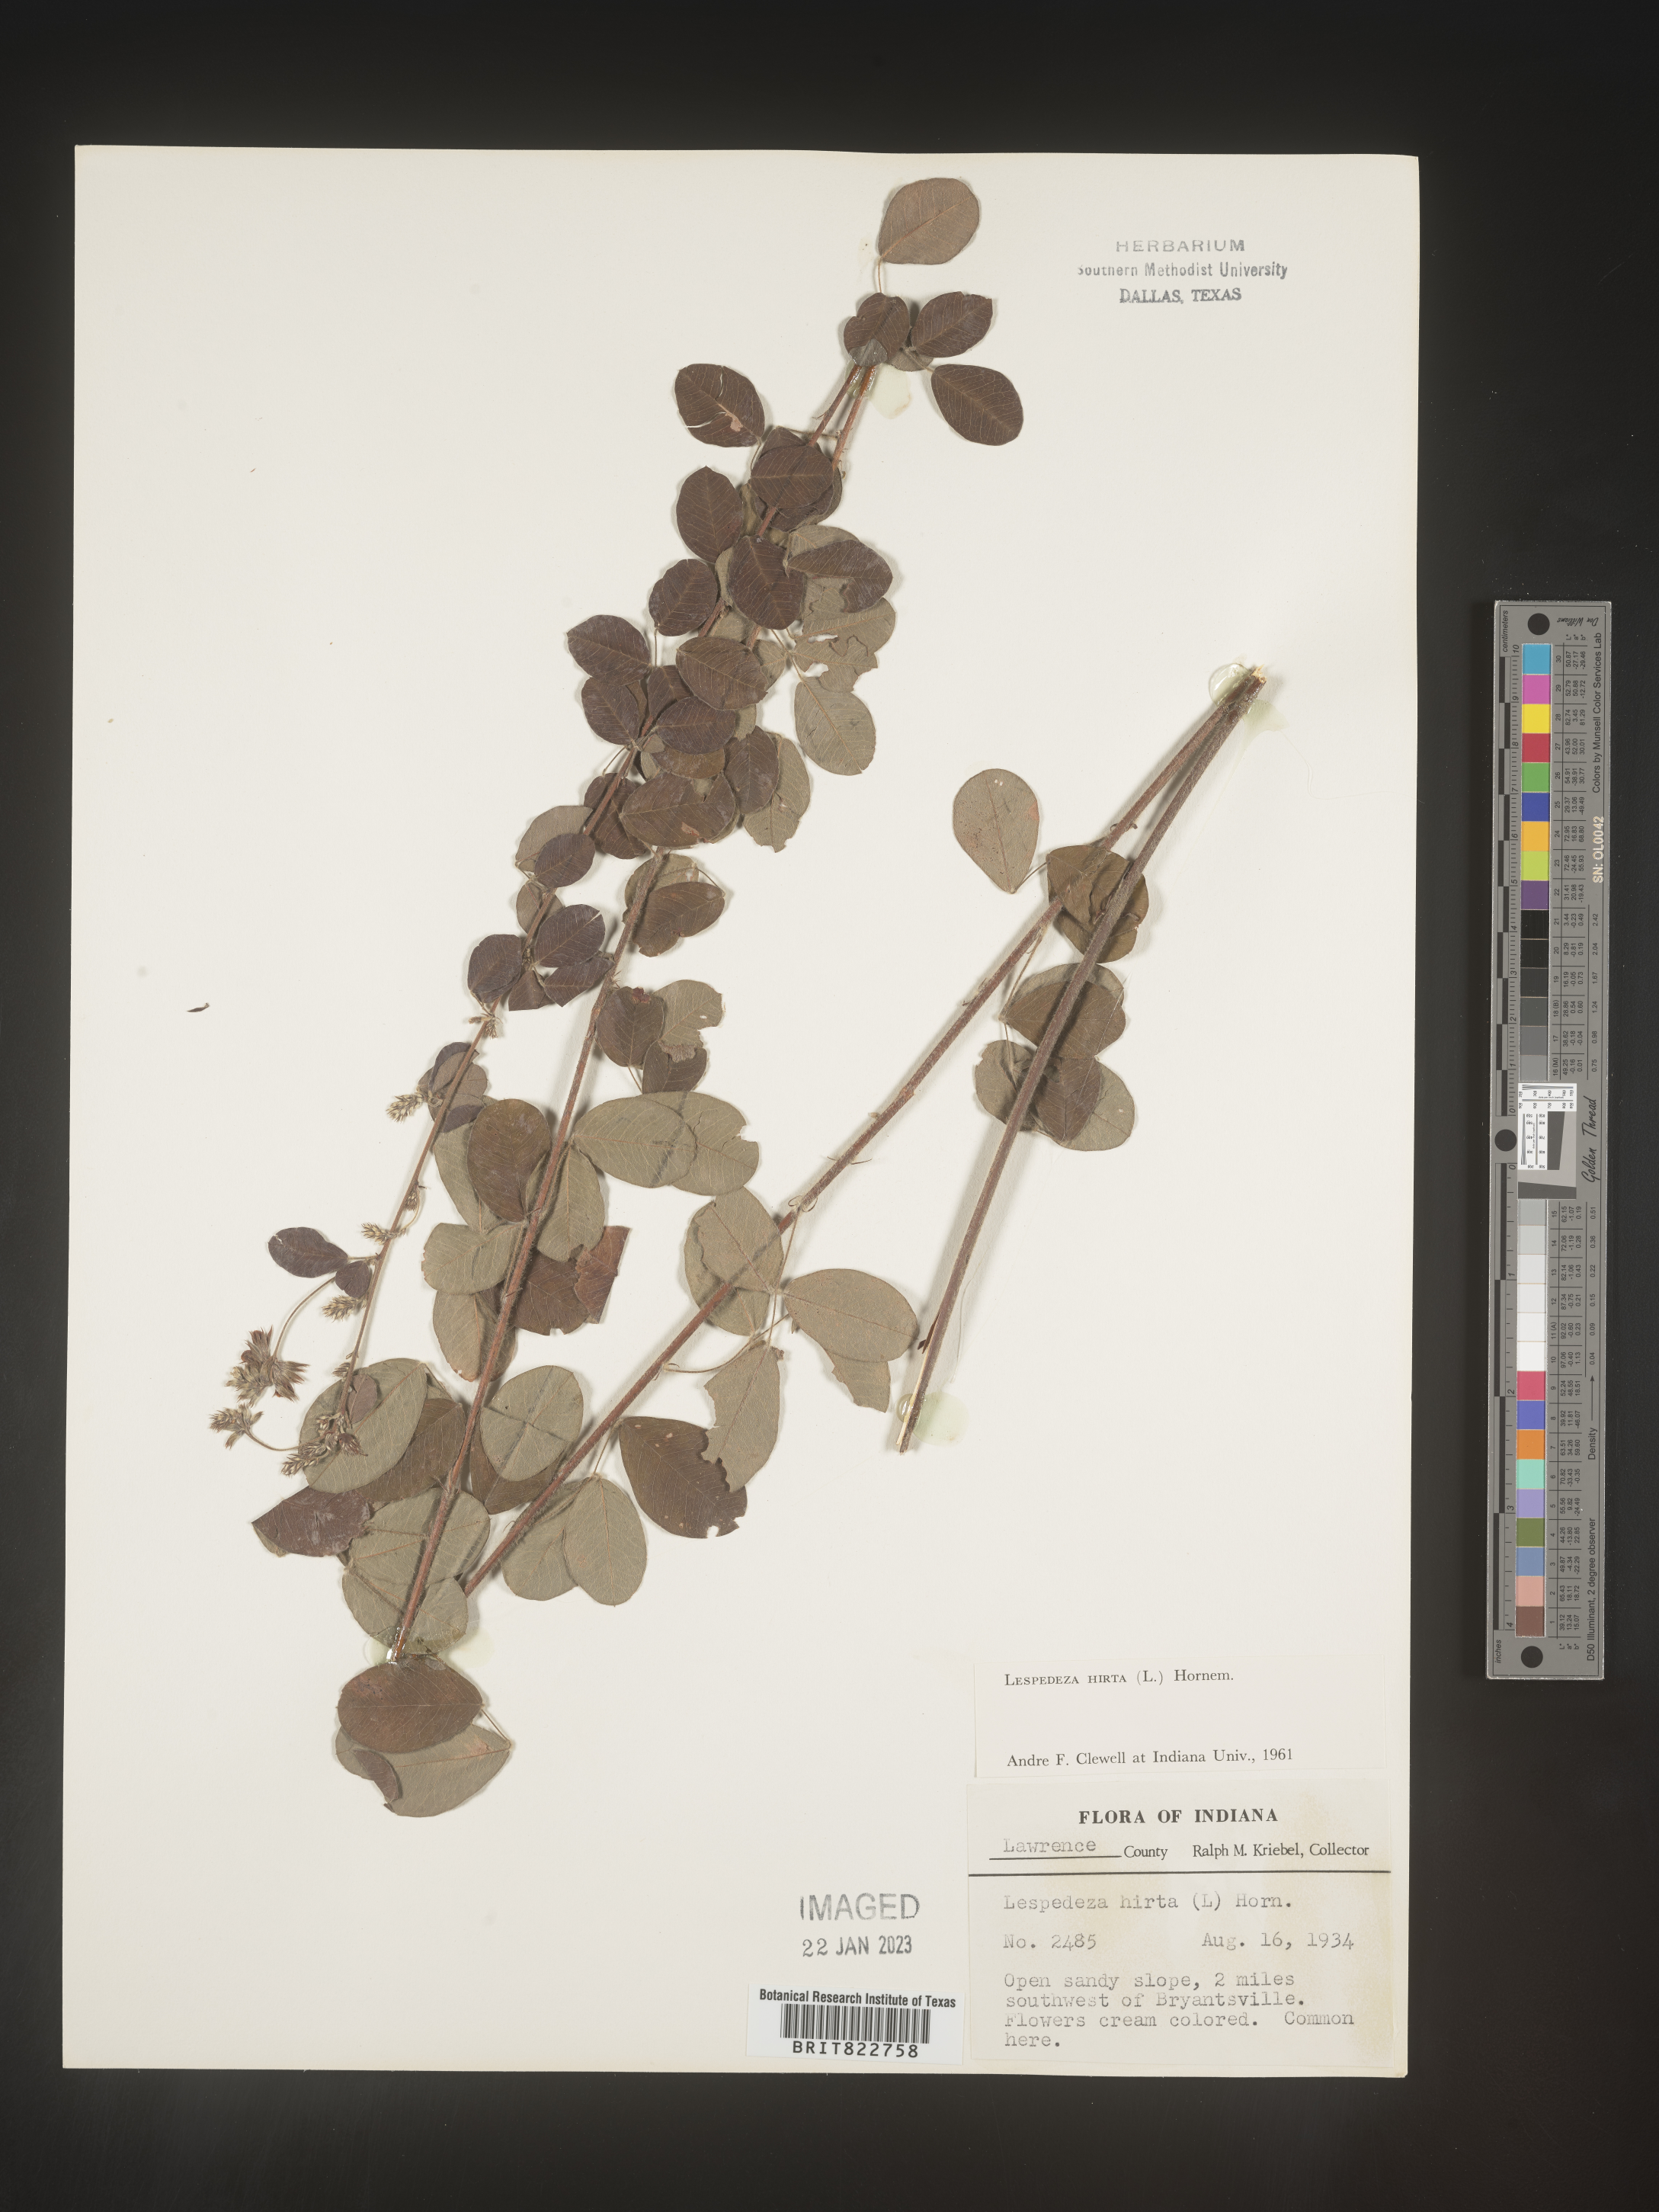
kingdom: Plantae
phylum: Tracheophyta
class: Magnoliopsida
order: Fabales
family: Fabaceae
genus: Lespedeza
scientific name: Lespedeza hirta
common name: Hairy lespedeza
